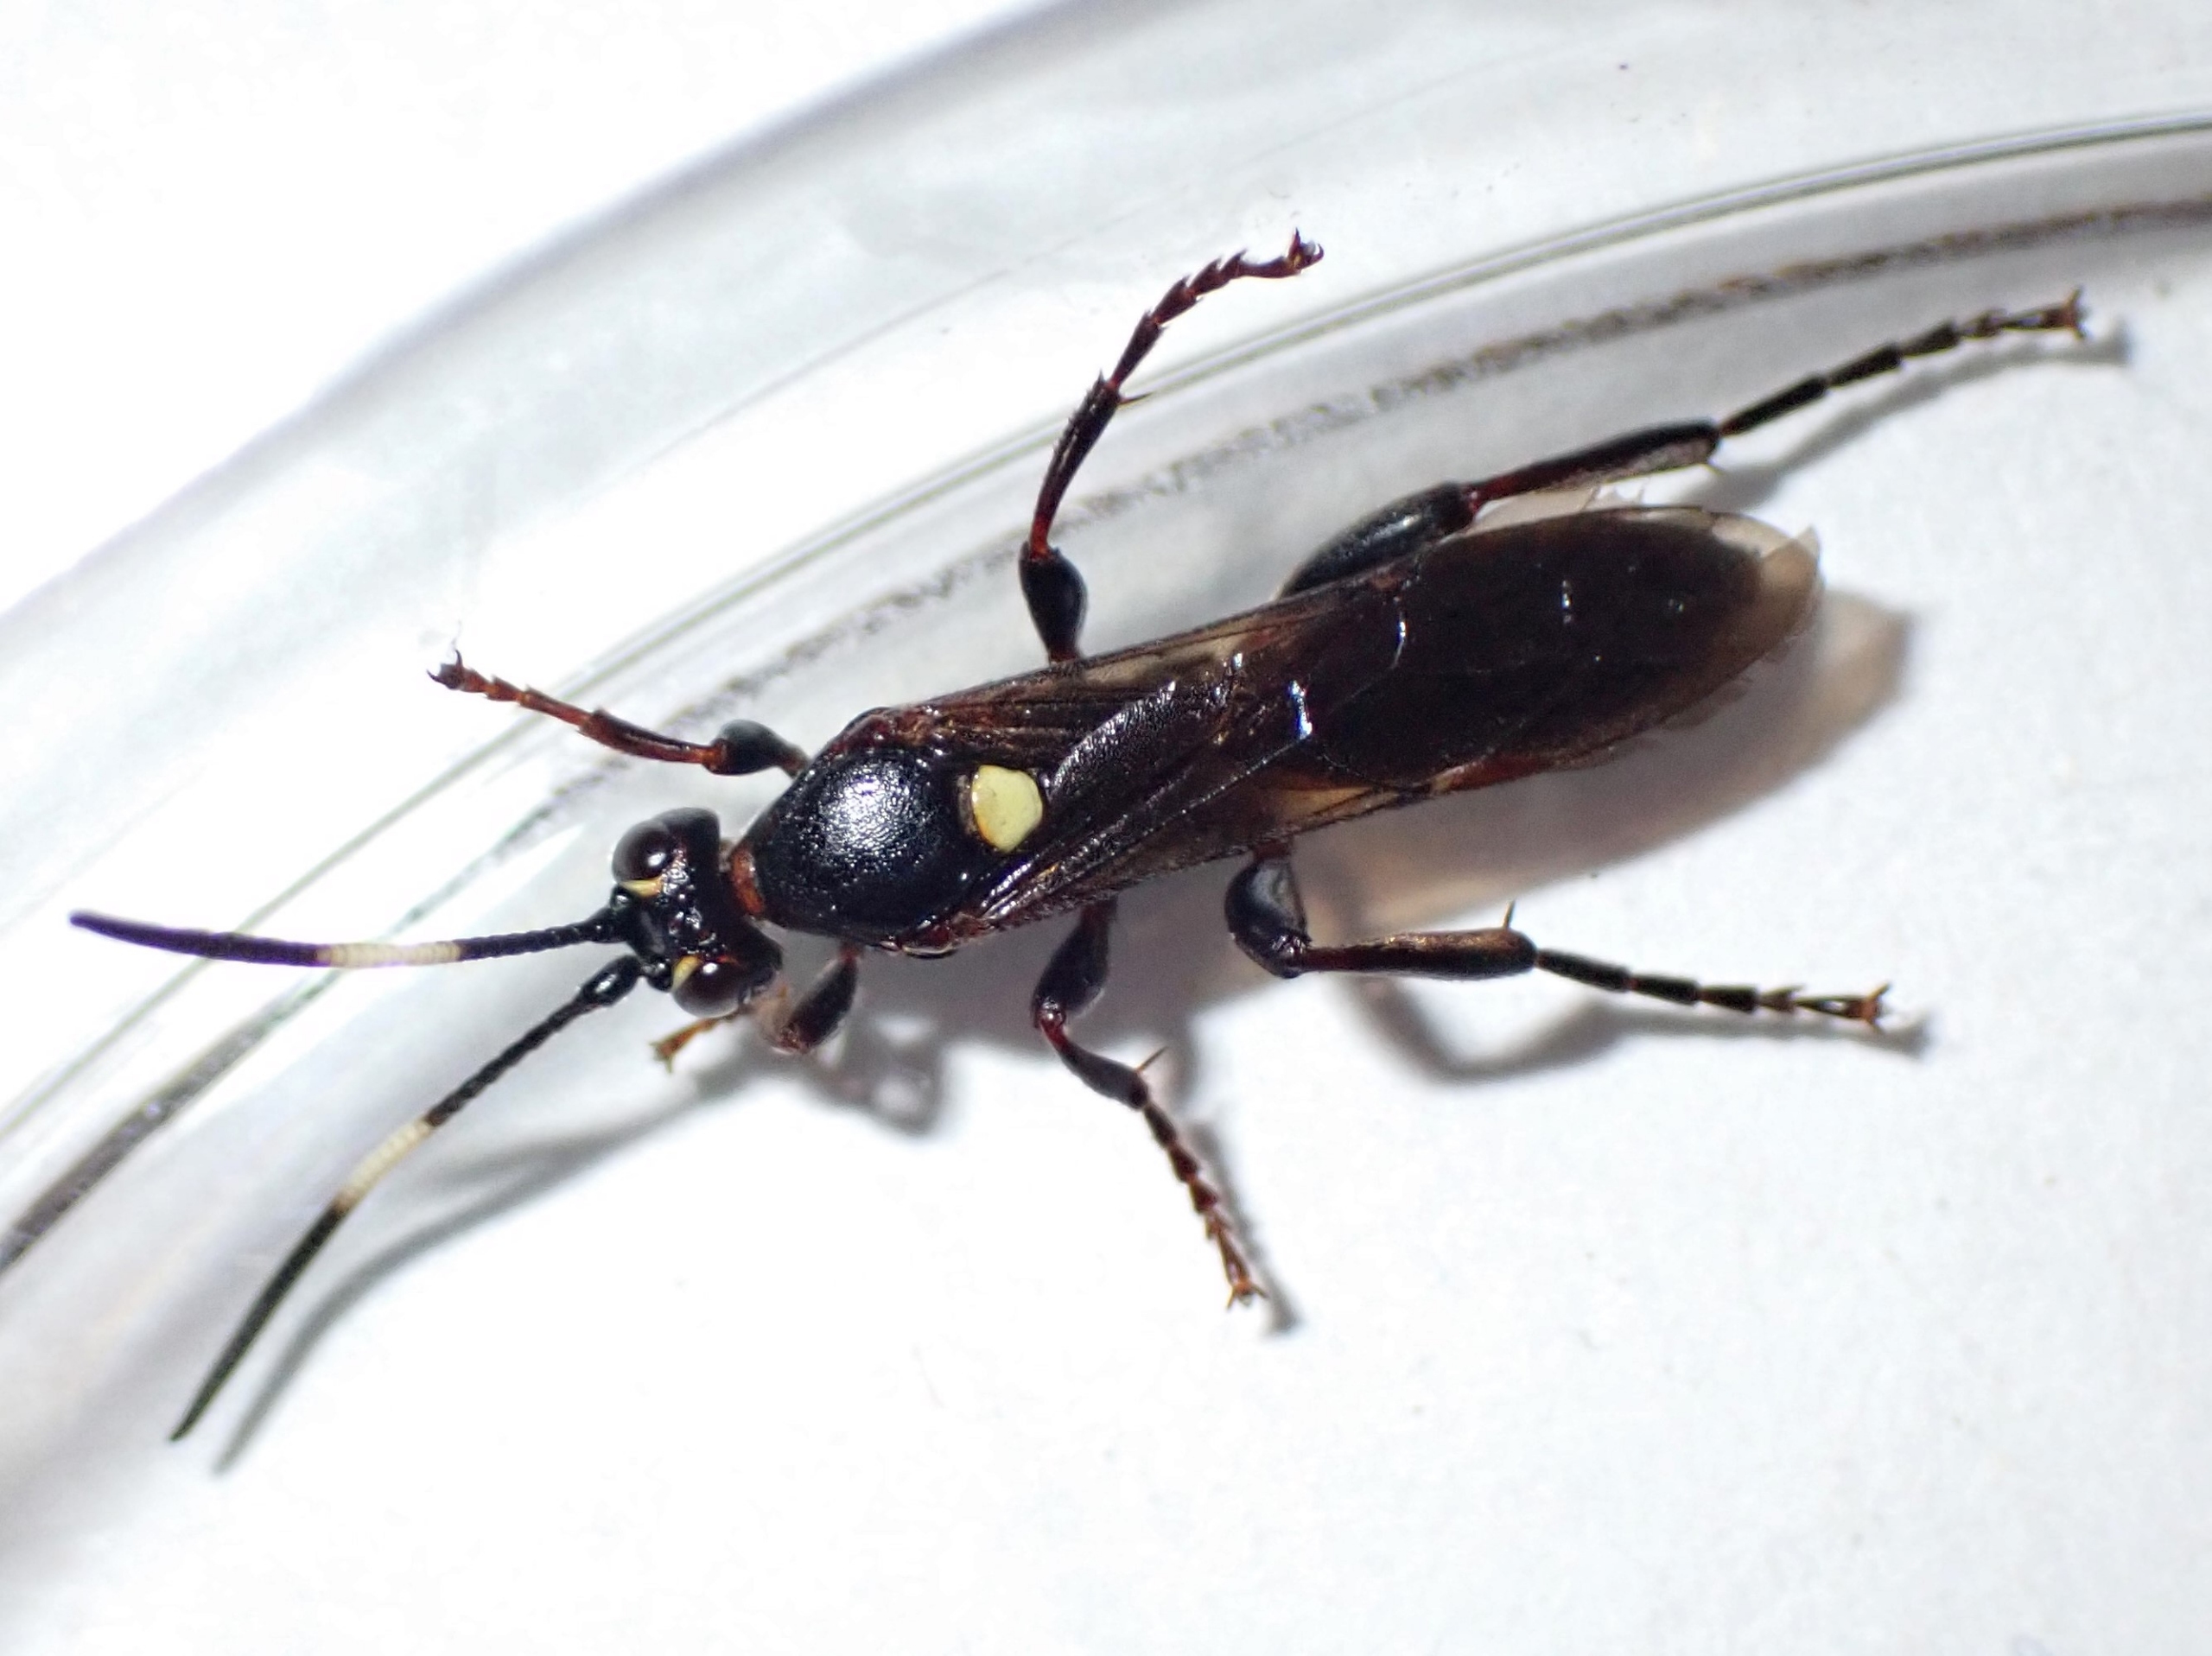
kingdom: Animalia
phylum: Arthropoda
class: Insecta
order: Hymenoptera
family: Ichneumonidae
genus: Cratichneumon
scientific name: Cratichneumon luteiventris
